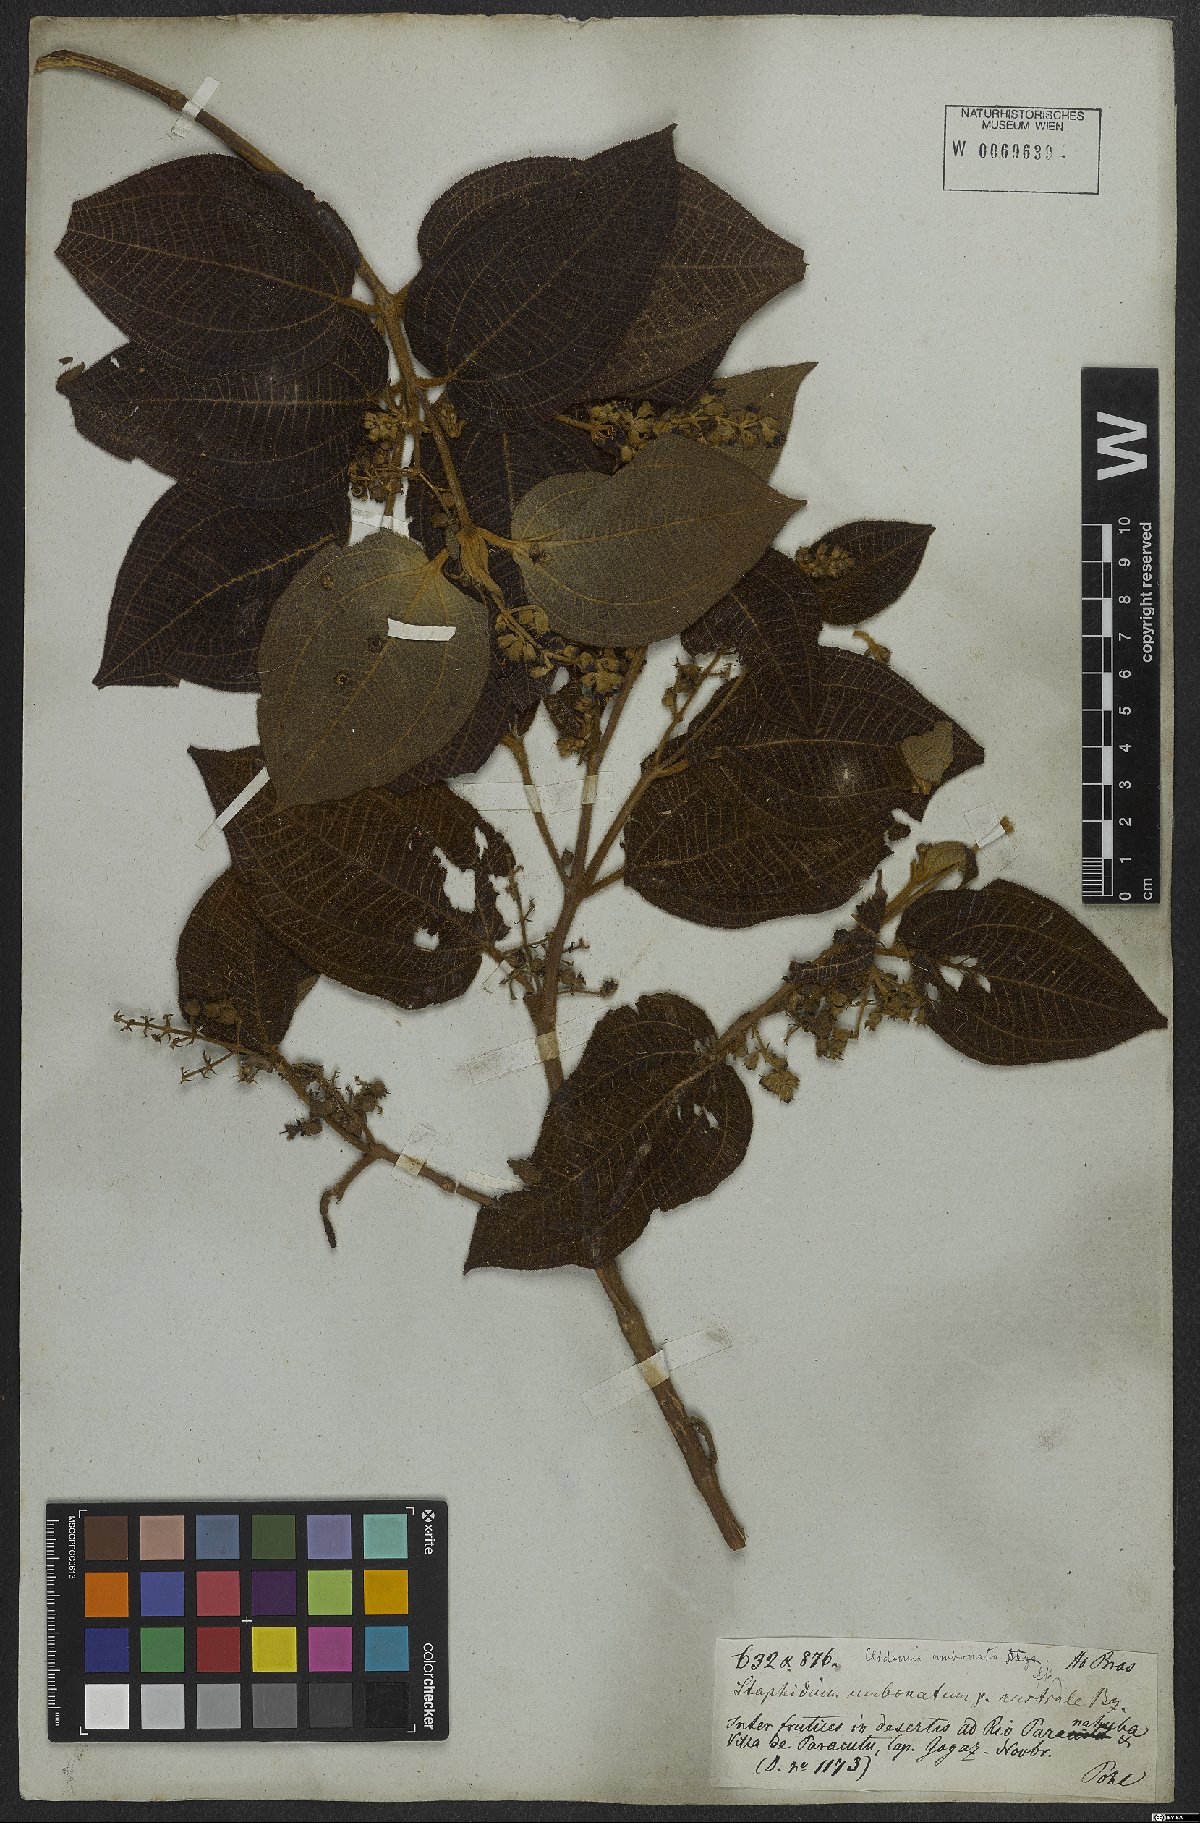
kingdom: Plantae
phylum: Tracheophyta
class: Magnoliopsida
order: Myrtales
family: Melastomataceae
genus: Miconia
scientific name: Miconia strigillosa
